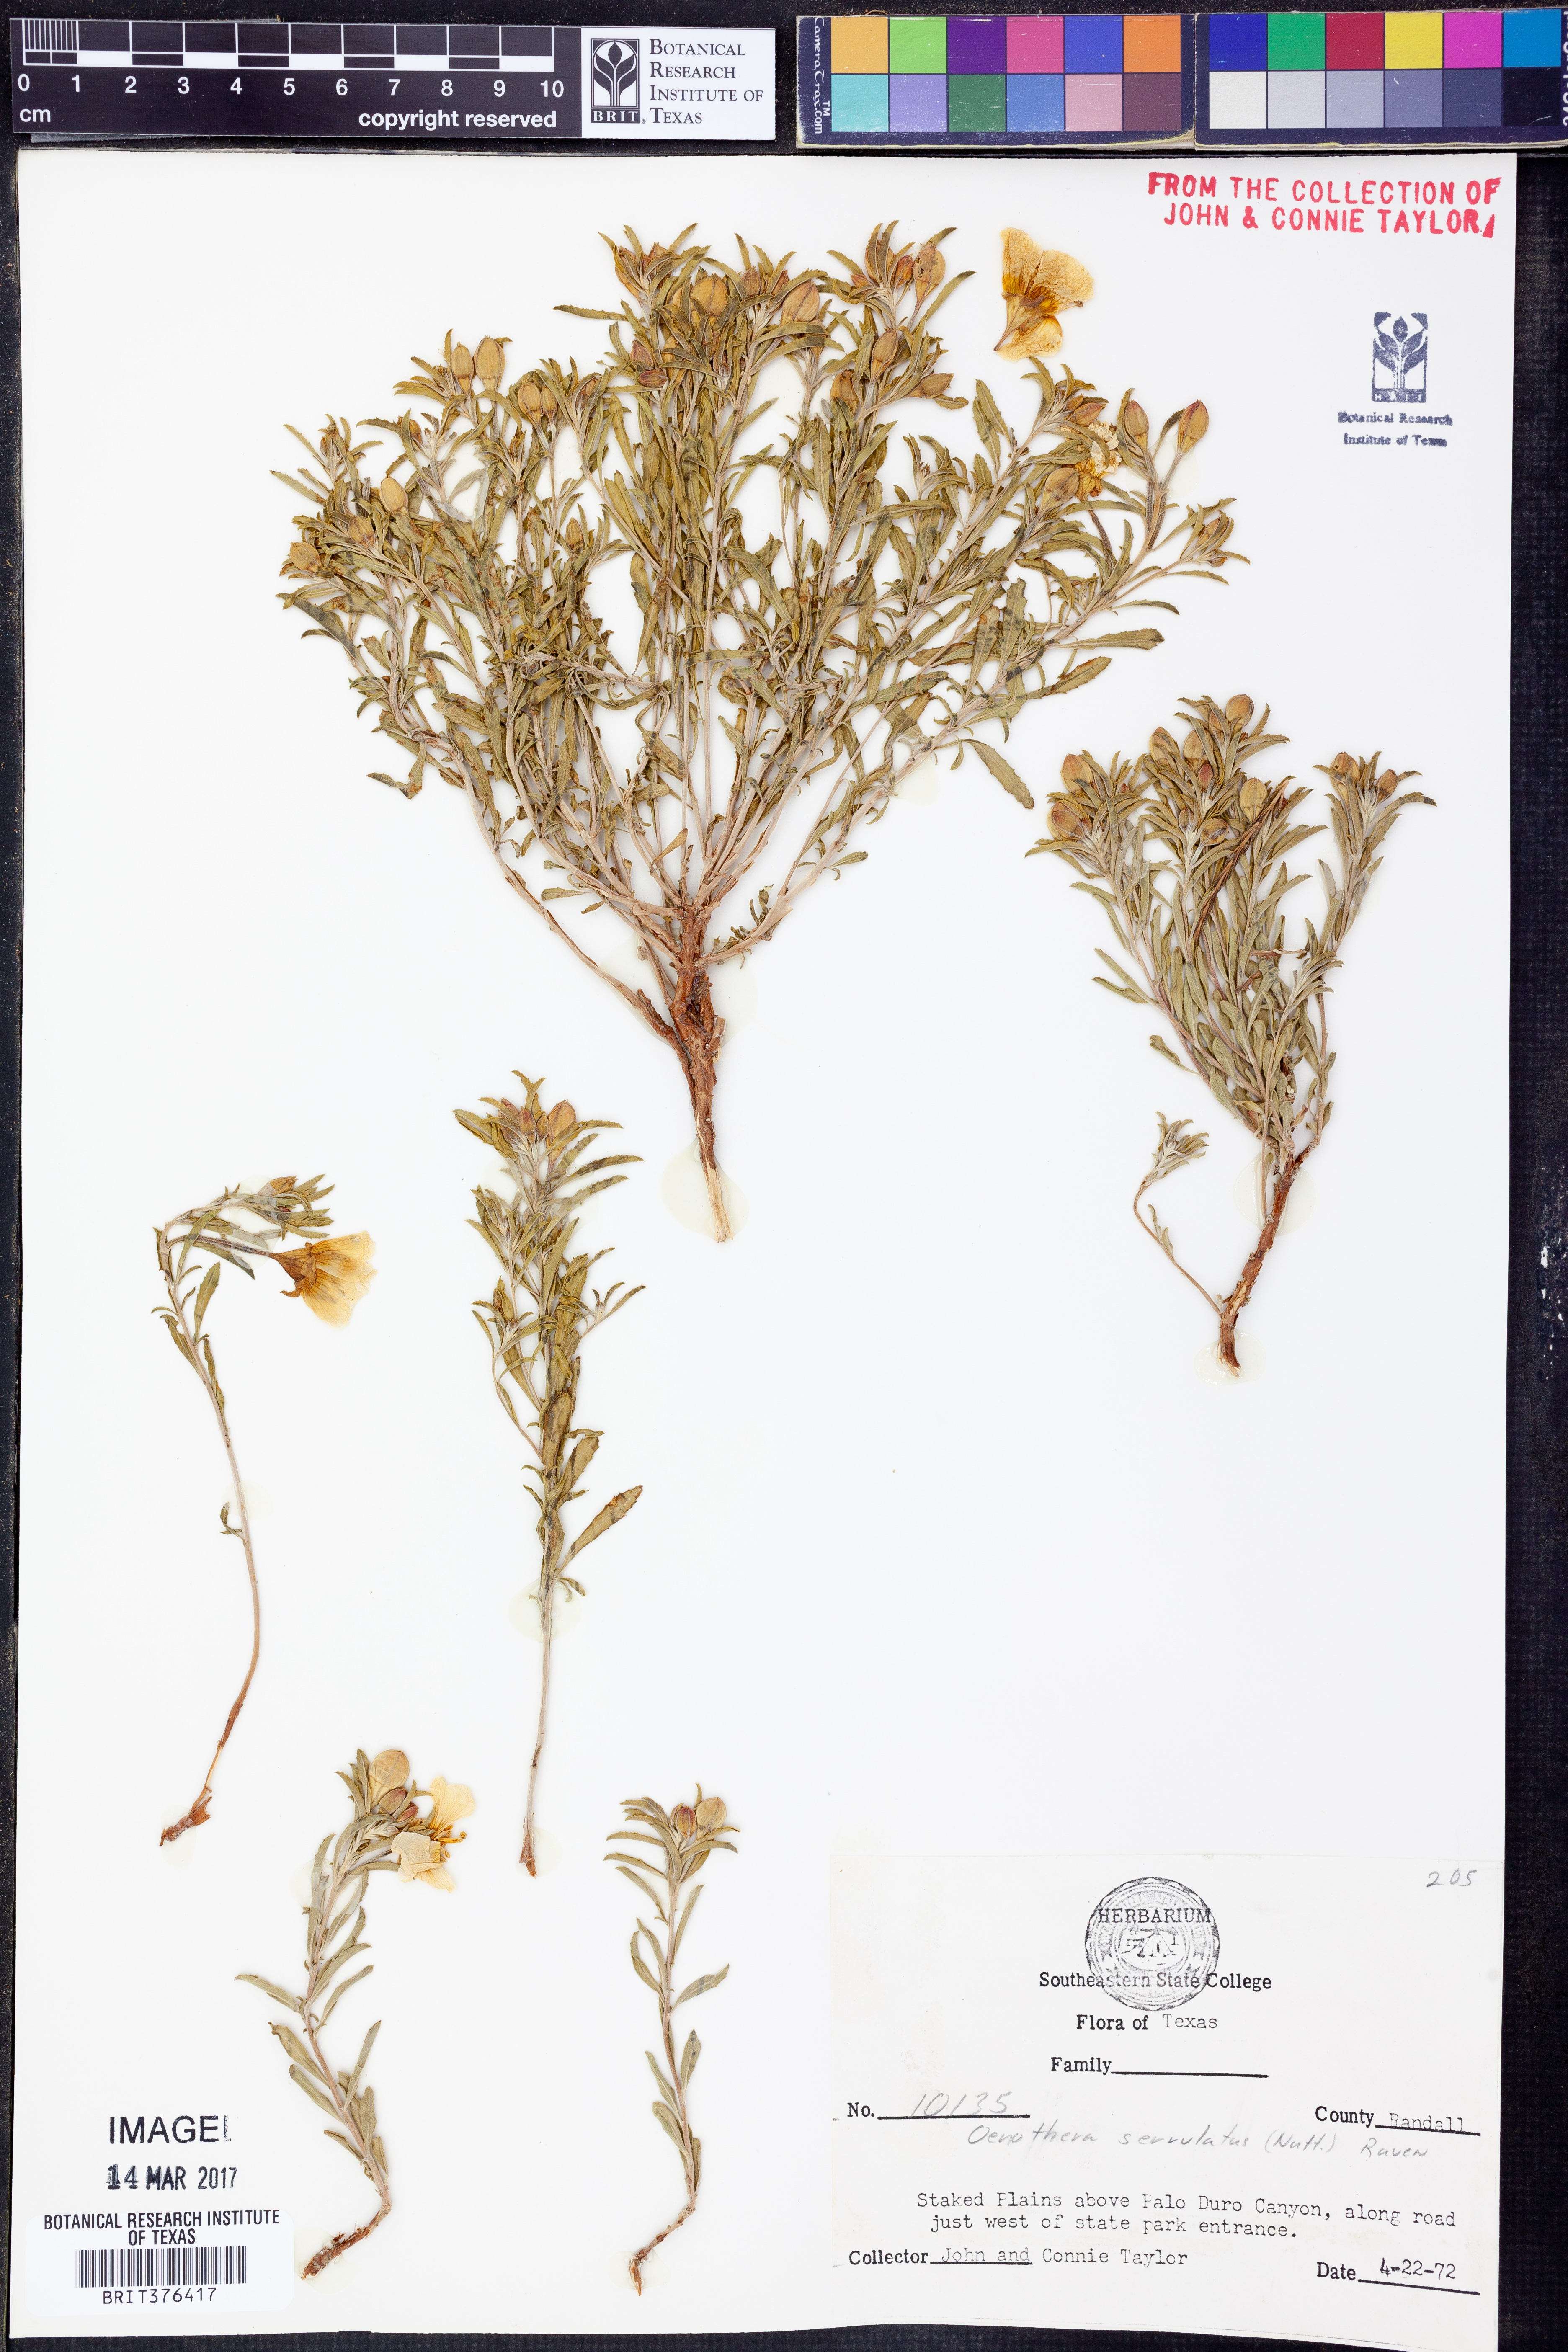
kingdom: Plantae
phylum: Tracheophyta
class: Magnoliopsida
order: Myrtales
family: Onagraceae
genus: Oenothera
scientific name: Oenothera serrulata
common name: Half-shrub calylophus
